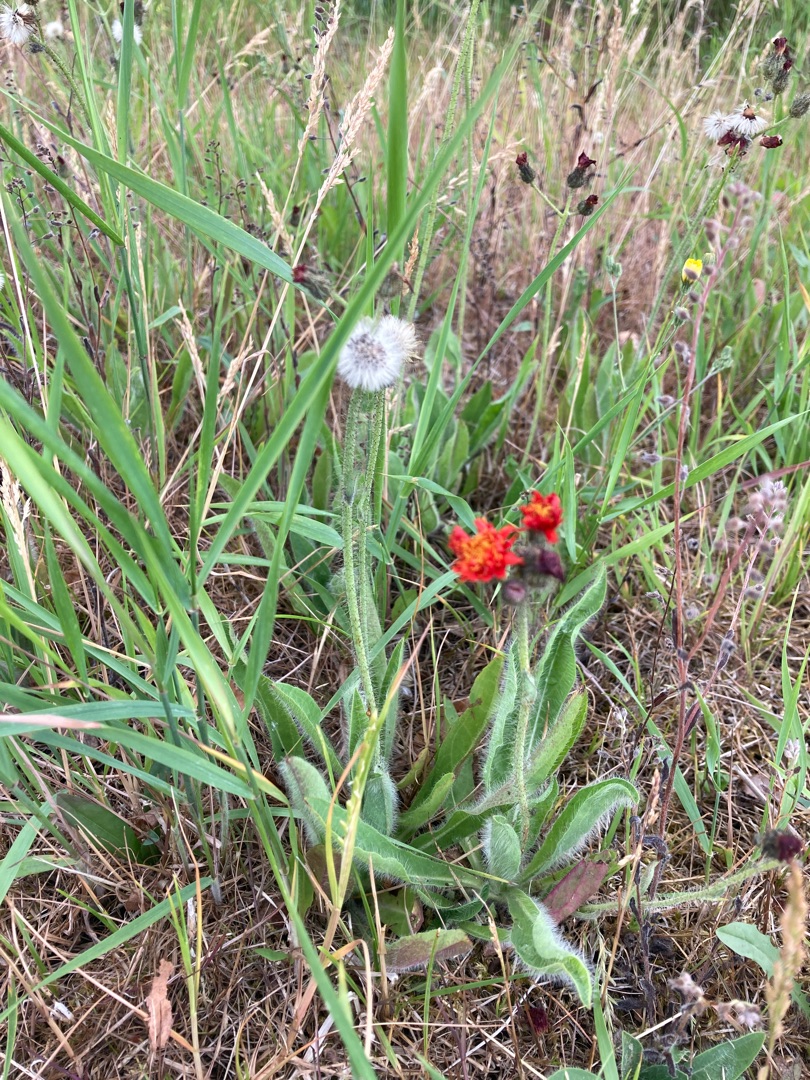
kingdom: Plantae
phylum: Tracheophyta
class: Magnoliopsida
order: Asterales
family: Asteraceae
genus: Pilosella
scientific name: Pilosella aurantiaca
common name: Pomerans-høgeurt
